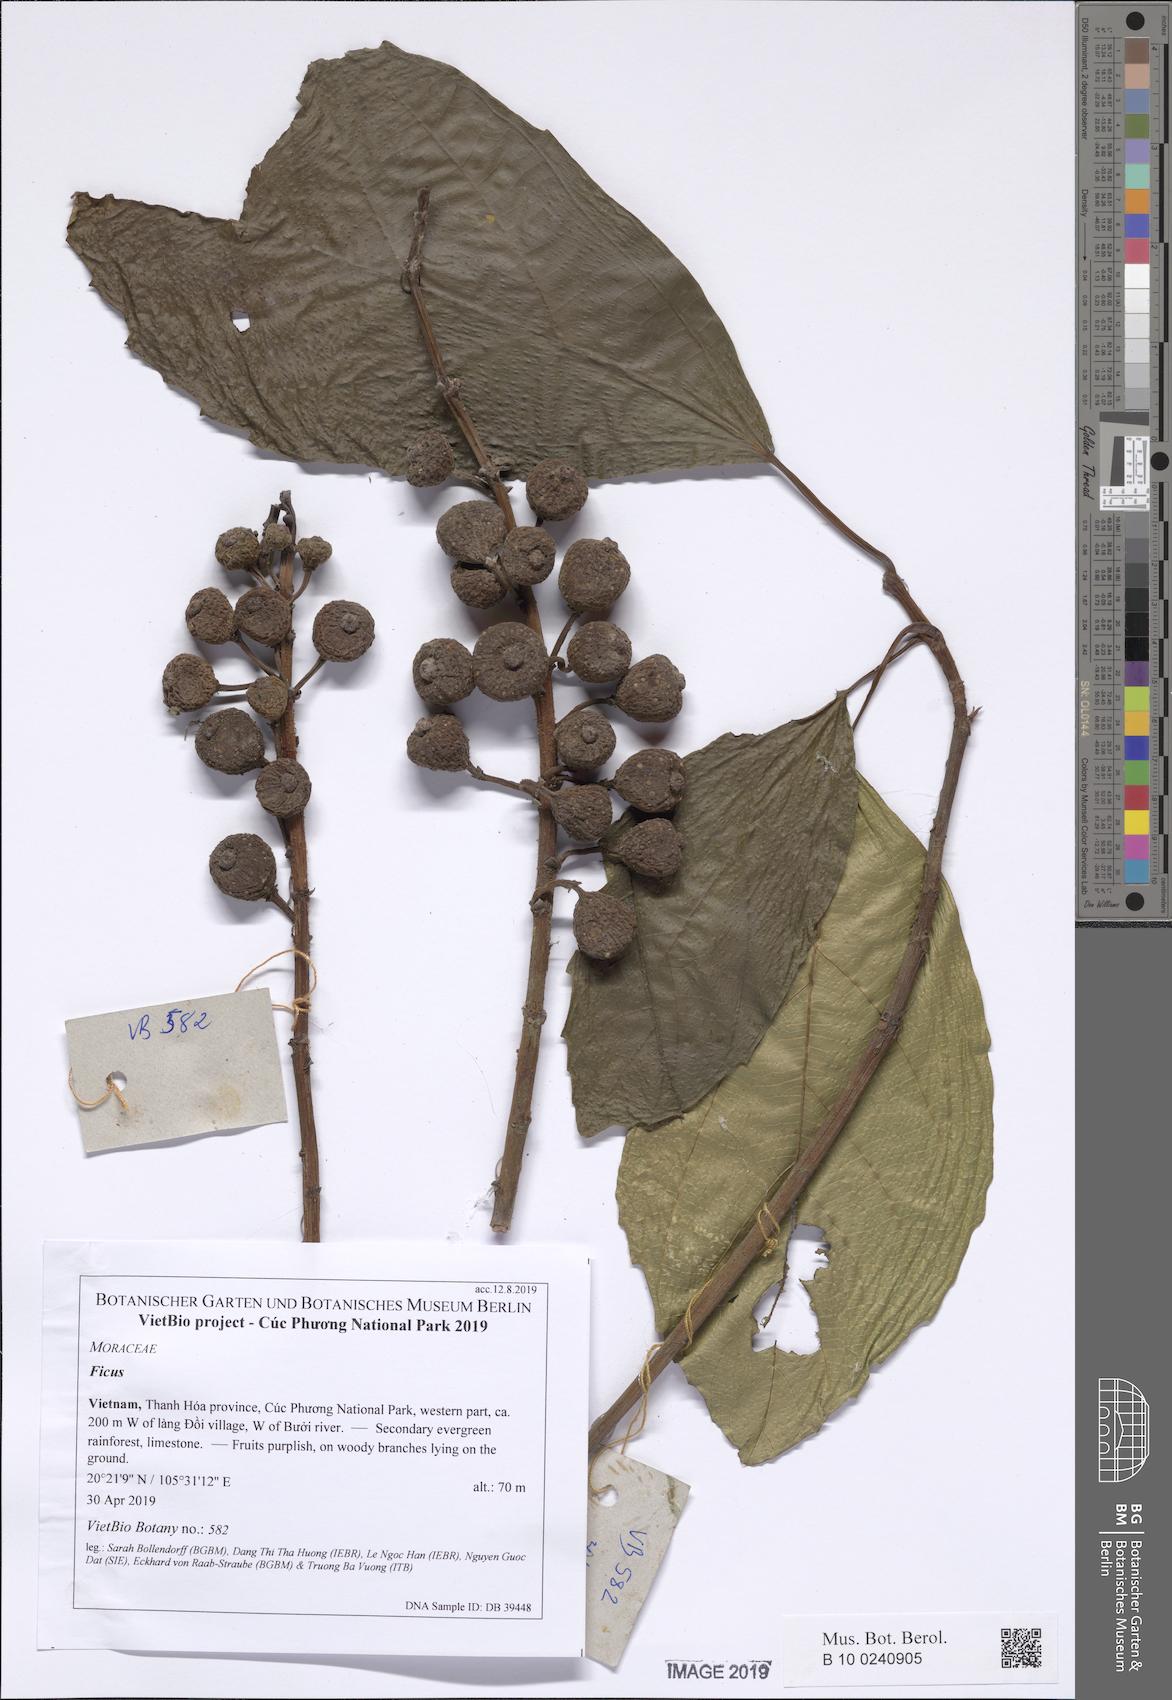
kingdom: Plantae
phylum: Tracheophyta
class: Magnoliopsida
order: Rosales
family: Moraceae
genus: Ficus
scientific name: Ficus heterostyla
